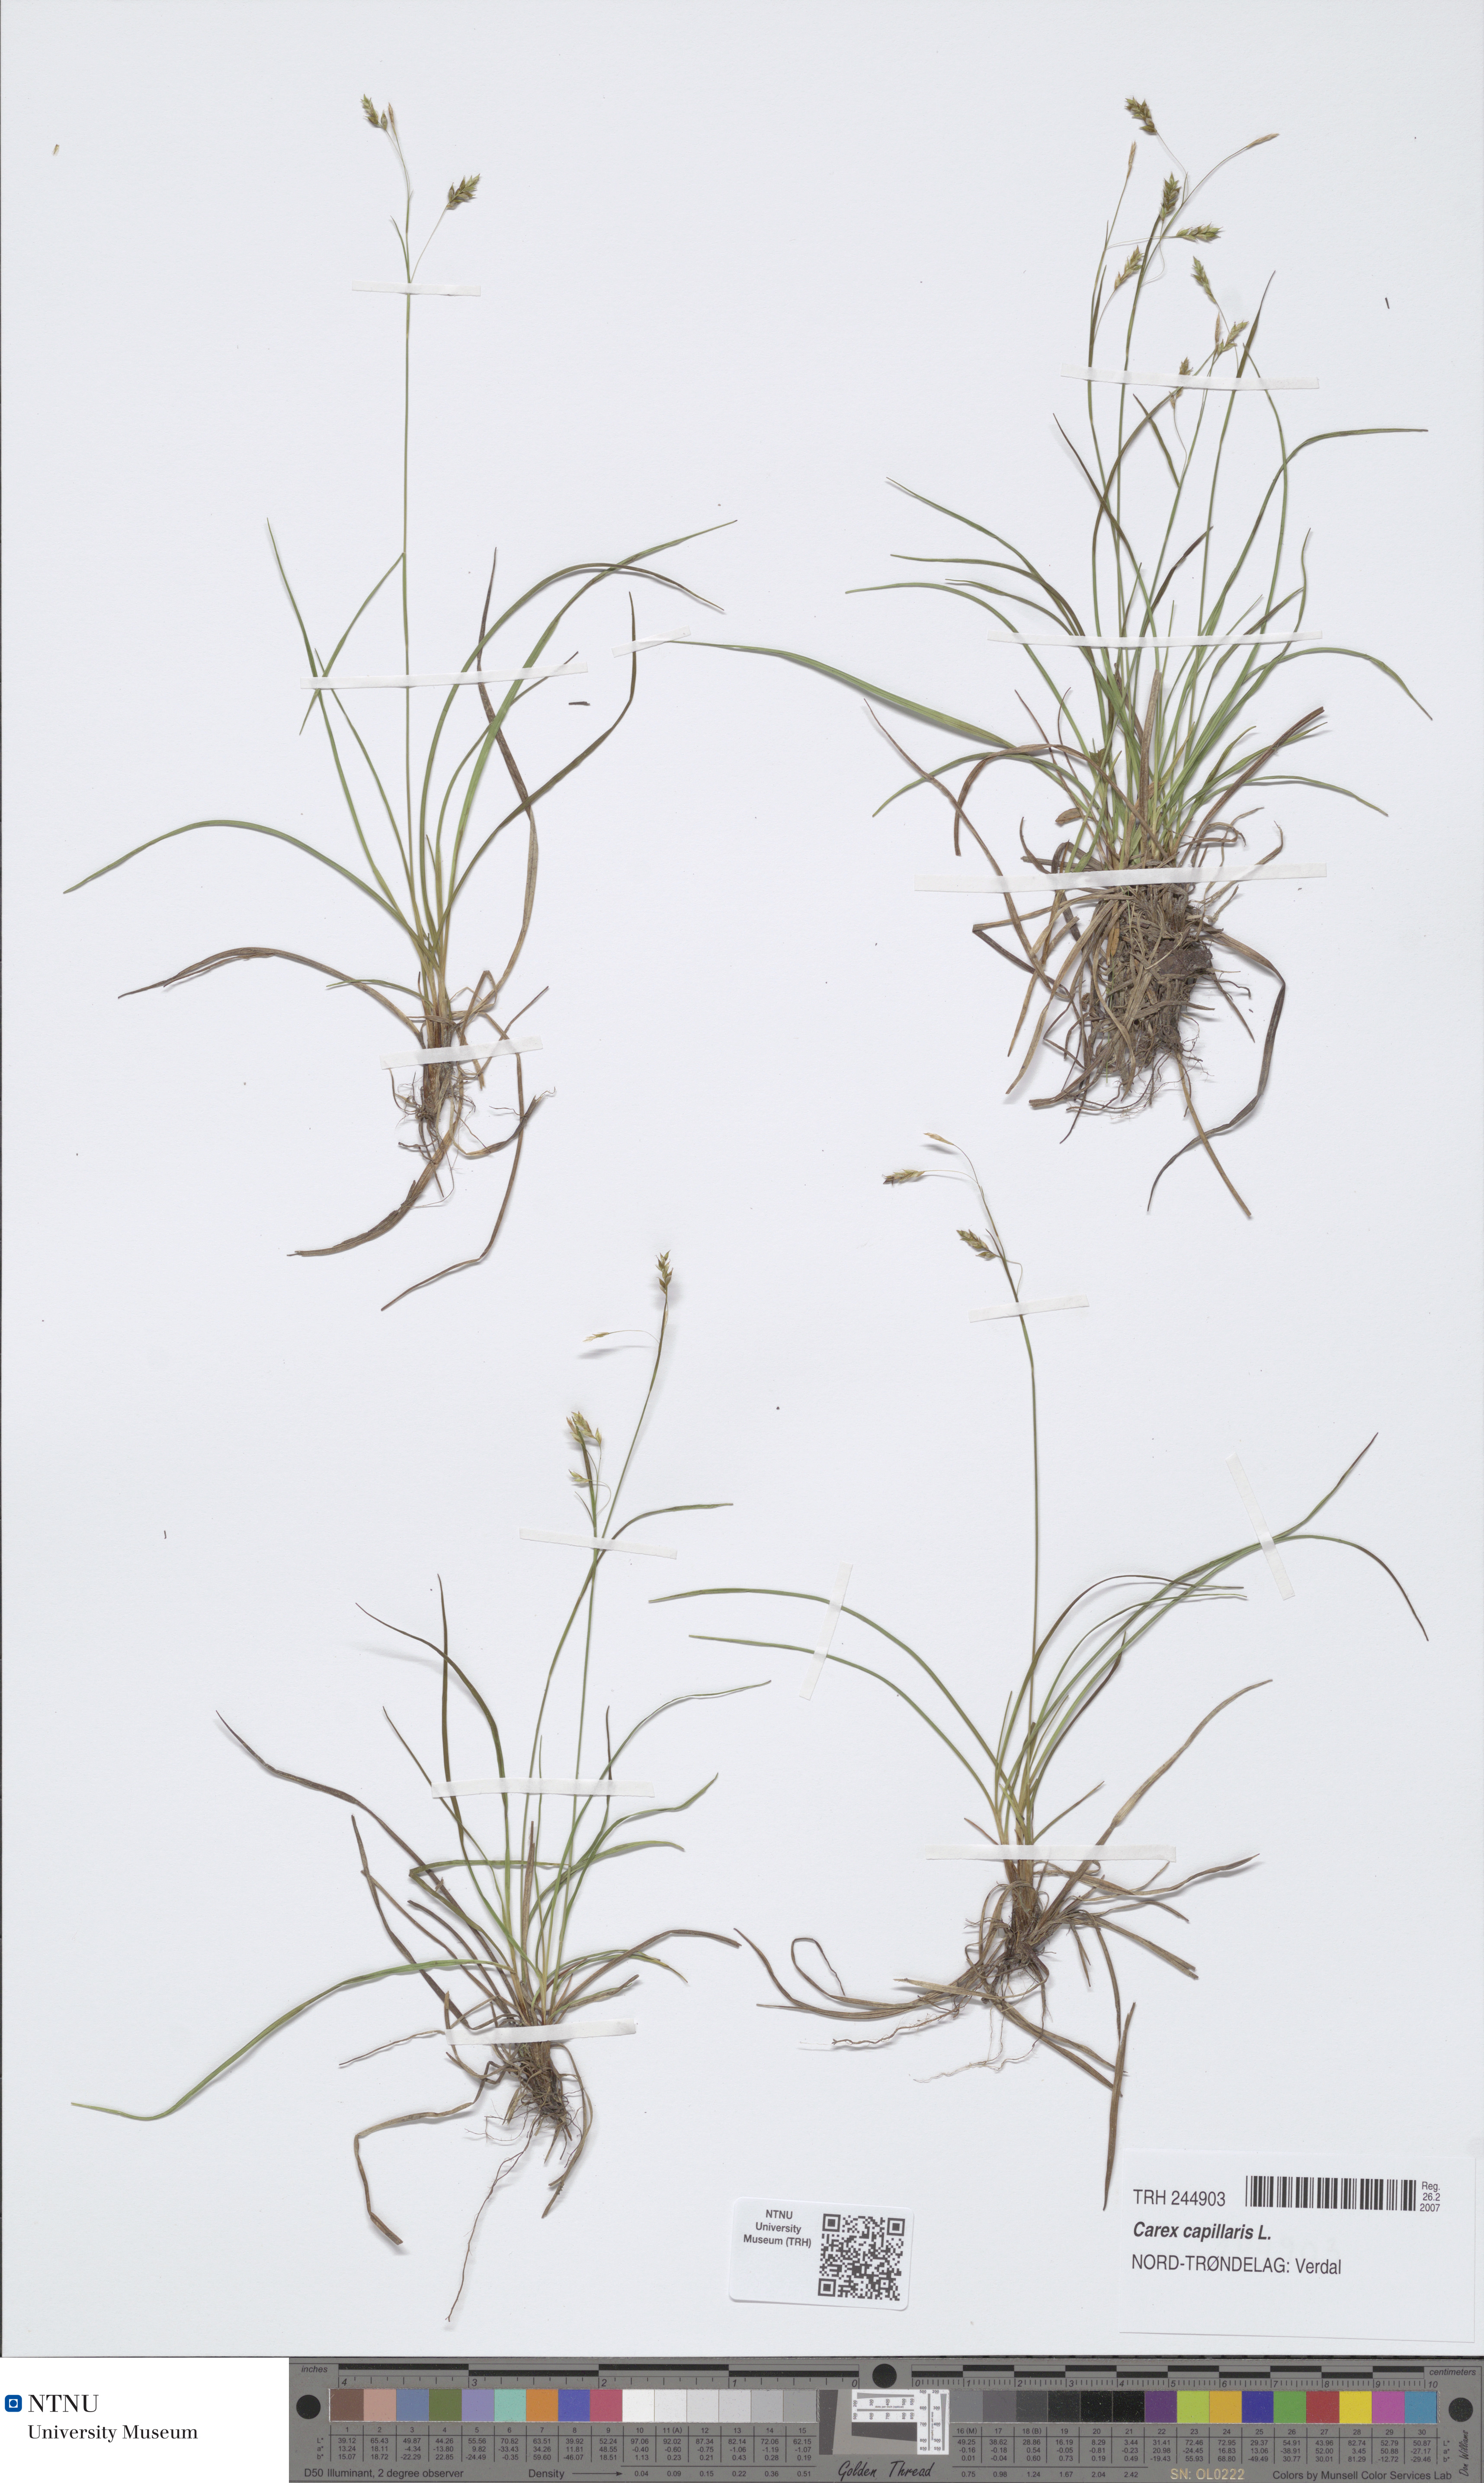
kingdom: Plantae
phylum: Tracheophyta
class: Liliopsida
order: Poales
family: Cyperaceae
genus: Carex
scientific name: Carex capillaris
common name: Hair sedge
